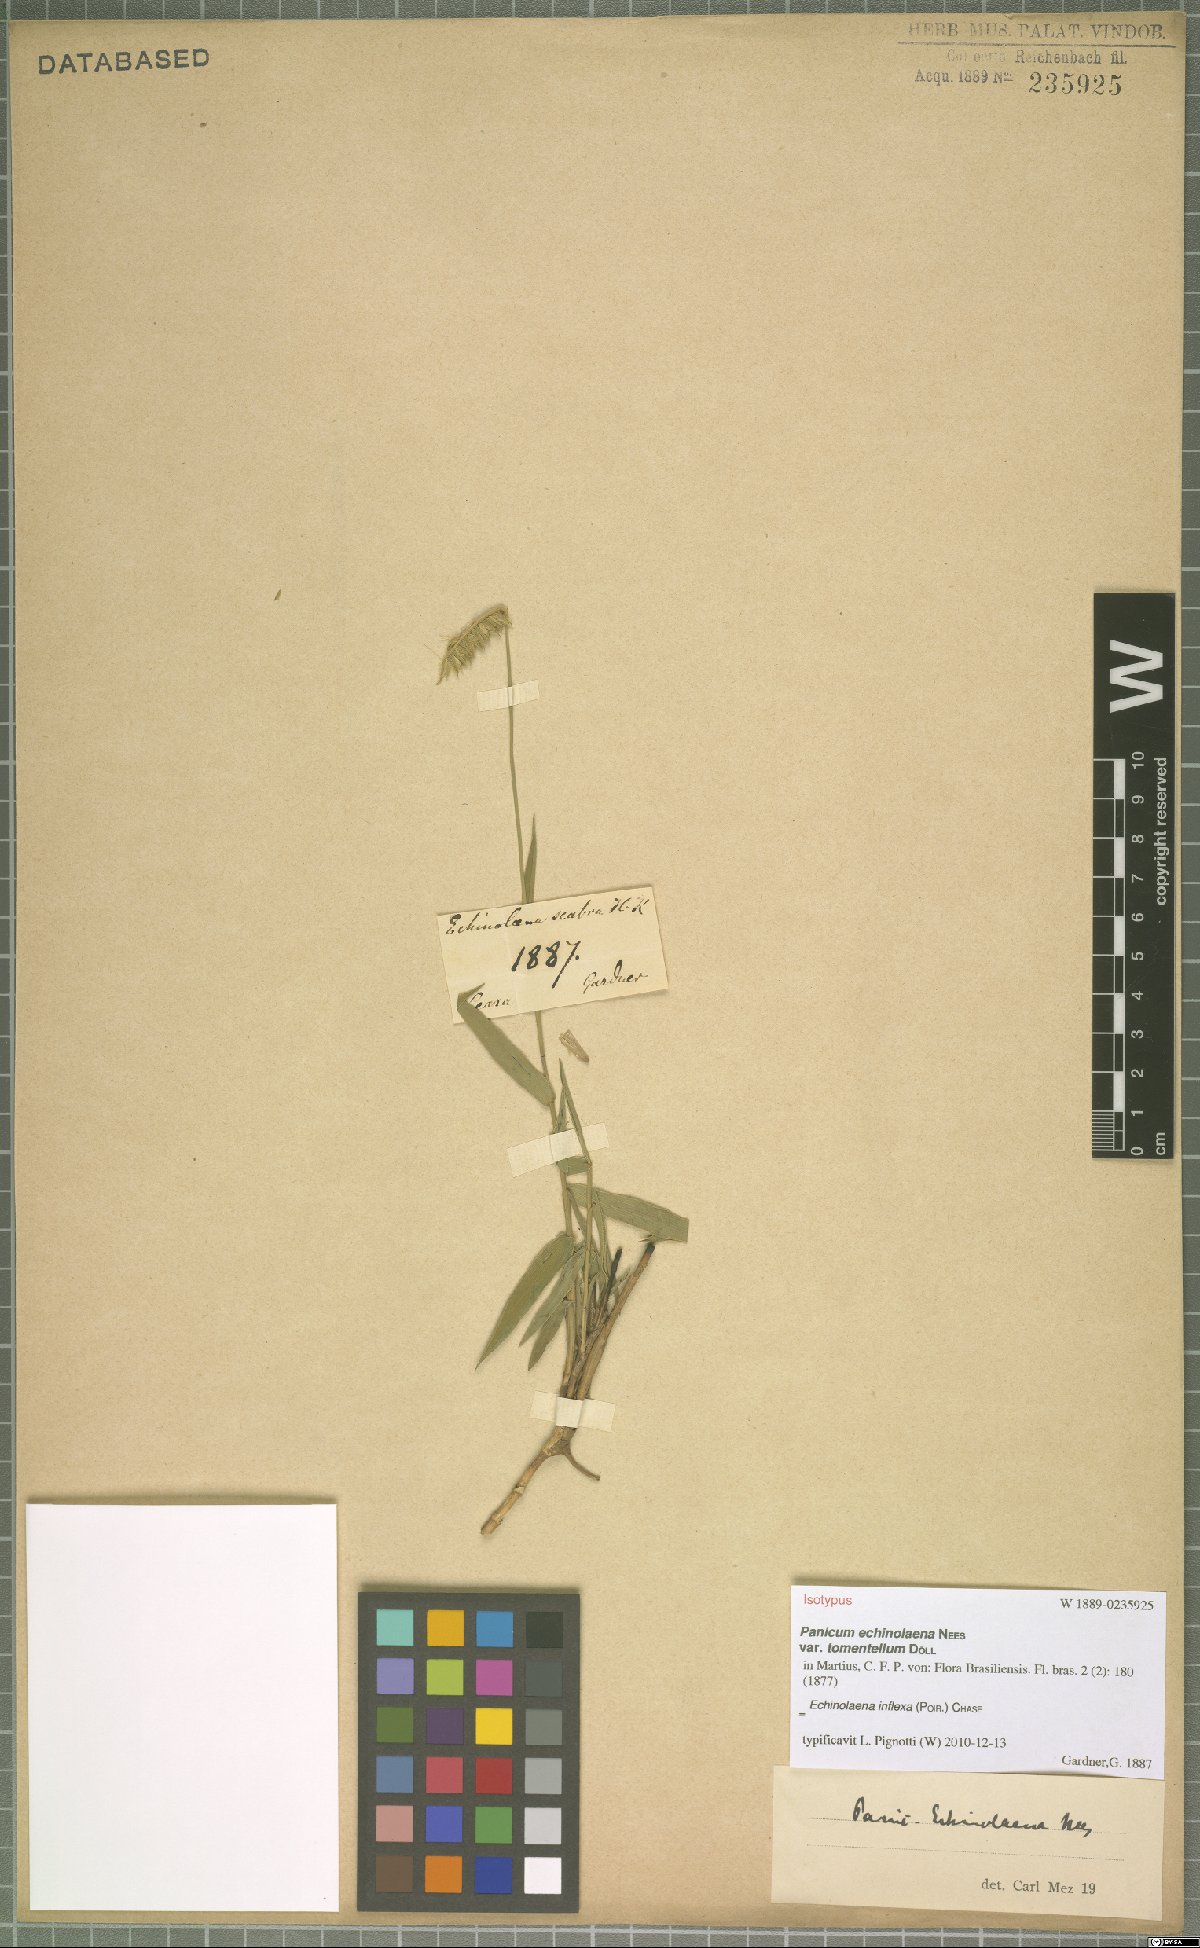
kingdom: Plantae
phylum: Tracheophyta
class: Liliopsida
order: Poales
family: Poaceae
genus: Echinolaena
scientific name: Echinolaena inflexa
